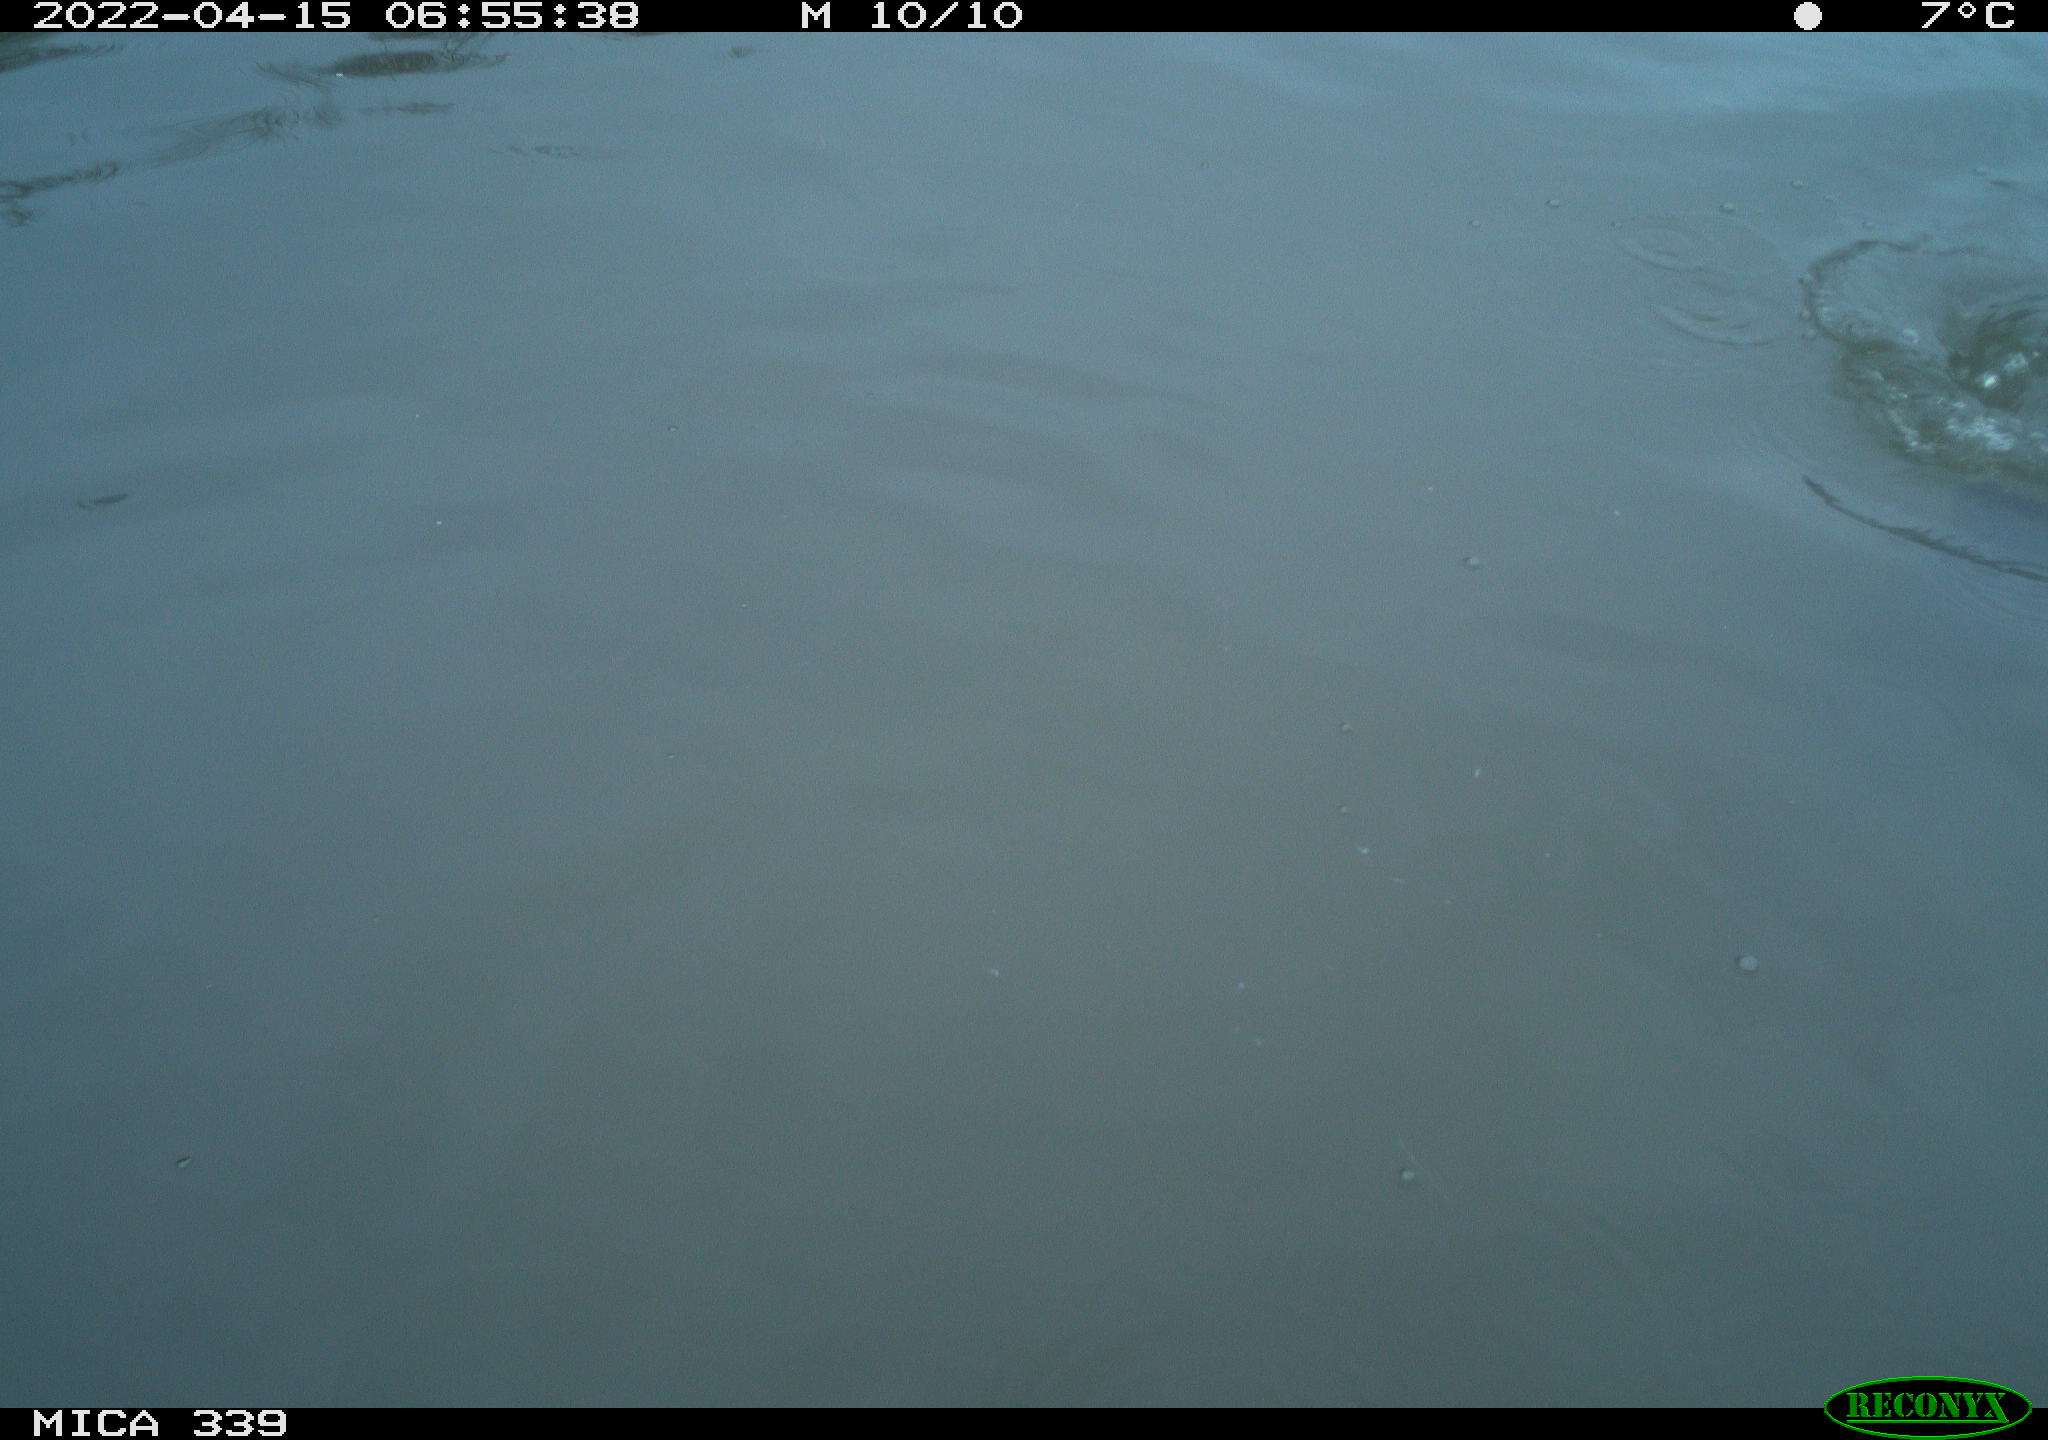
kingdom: Animalia
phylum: Chordata
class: Aves
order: Suliformes
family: Phalacrocoracidae
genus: Phalacrocorax
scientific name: Phalacrocorax carbo
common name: Great cormorant
